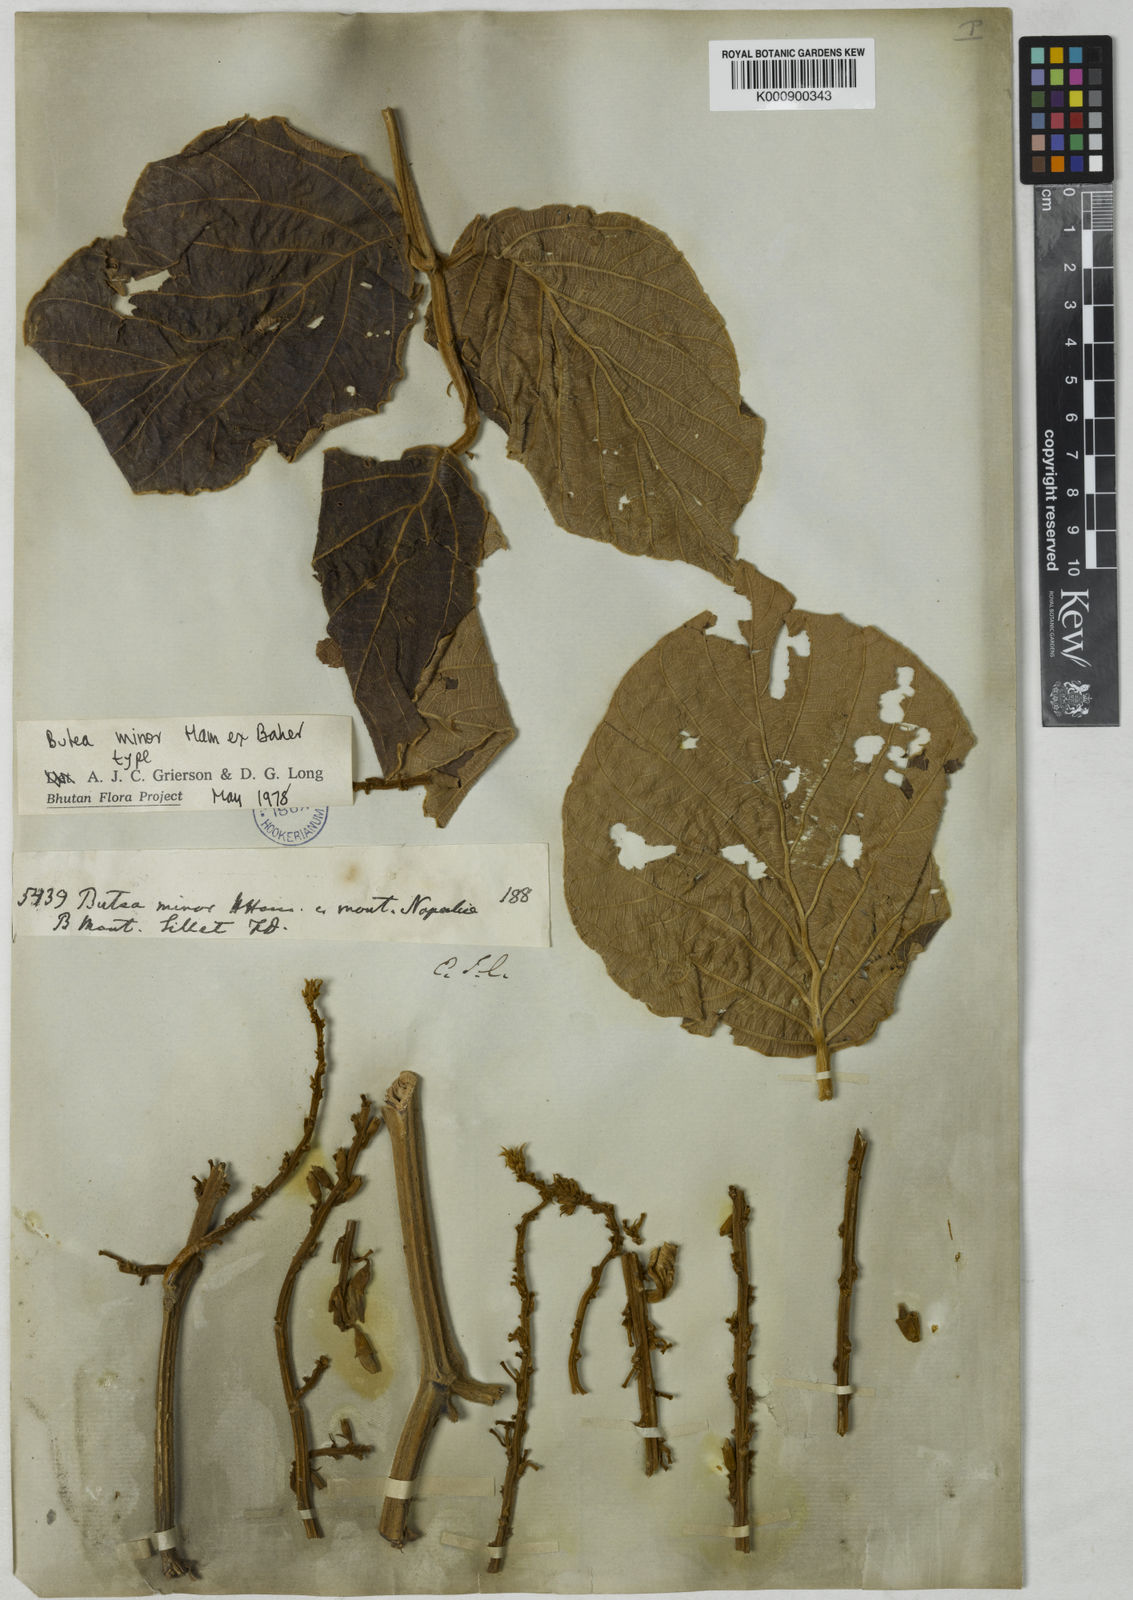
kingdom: Plantae
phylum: Tracheophyta
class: Magnoliopsida
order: Fabales
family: Fabaceae
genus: Butea
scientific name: Butea
